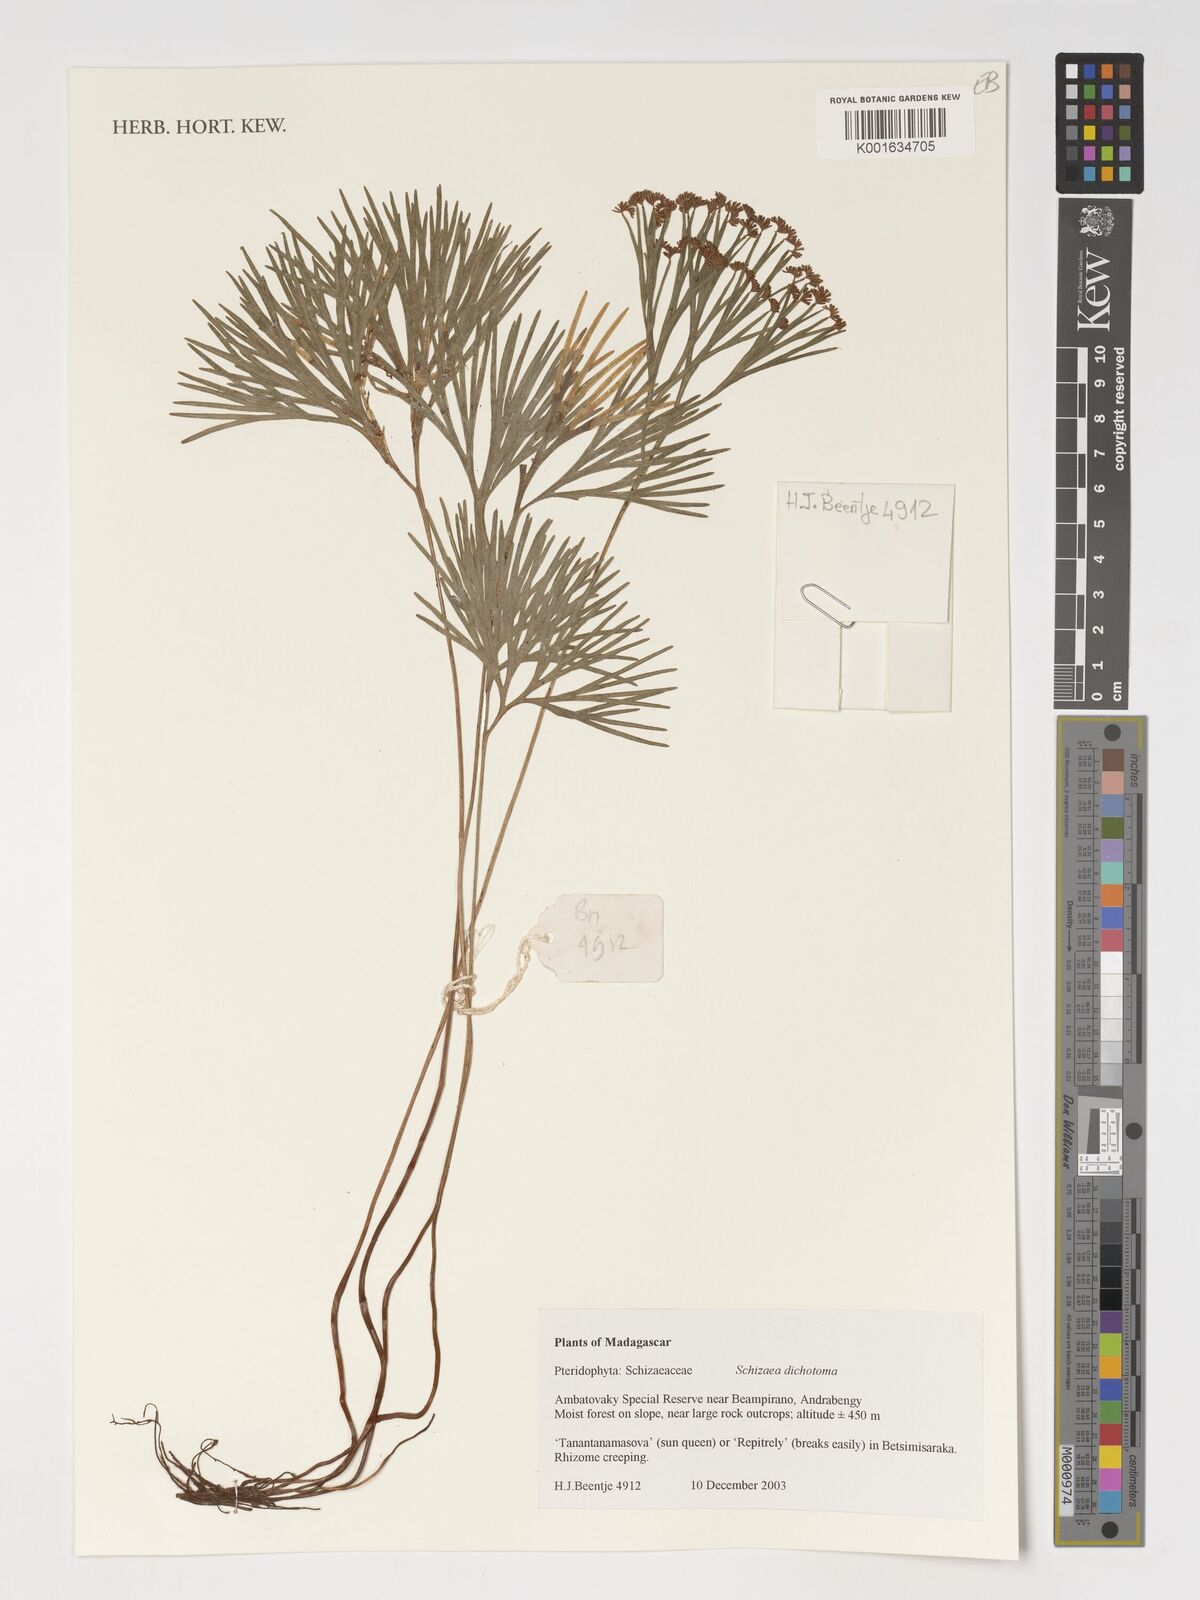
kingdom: Plantae
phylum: Tracheophyta
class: Polypodiopsida
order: Schizaeales
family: Schizaeaceae
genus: Schizaea
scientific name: Schizaea dichotoma
